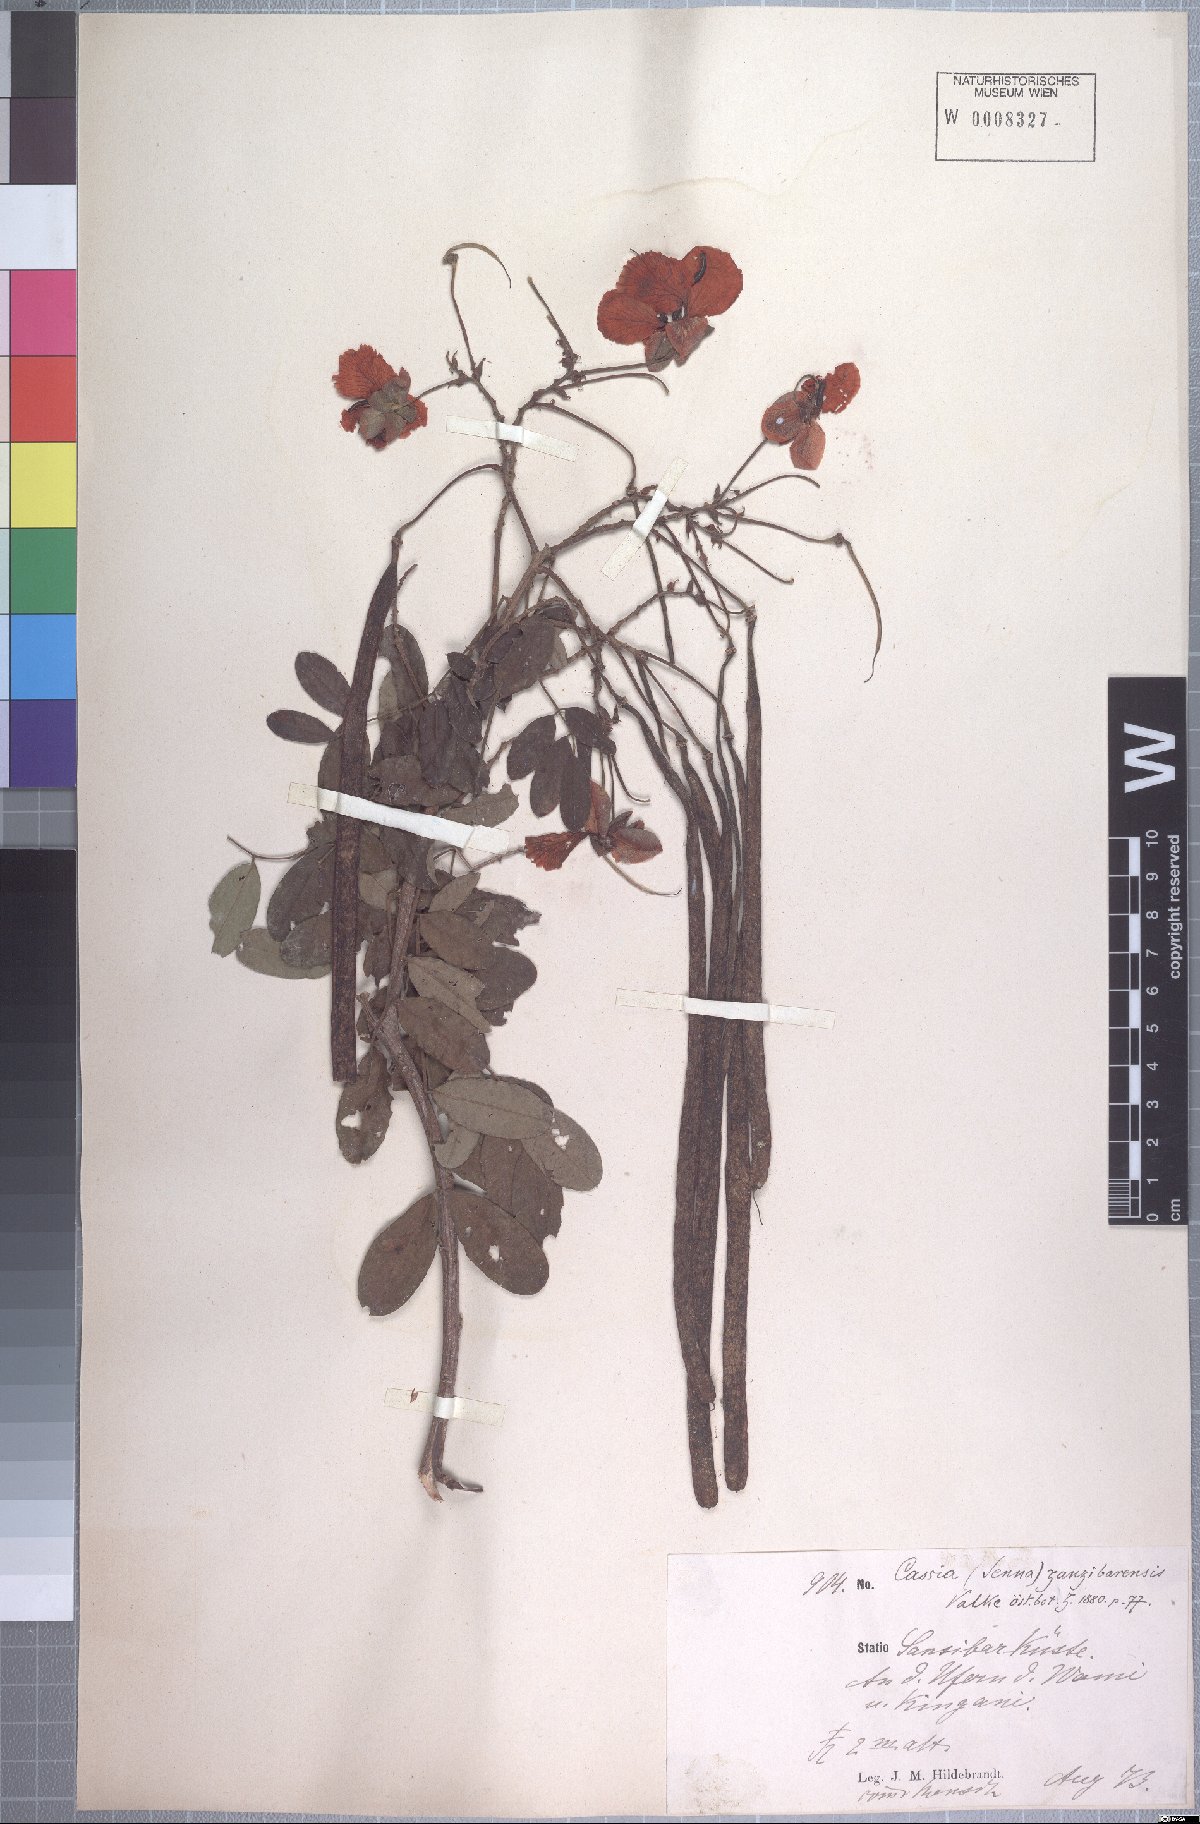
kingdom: Plantae
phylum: Tracheophyta
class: Magnoliopsida
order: Fabales
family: Fabaceae
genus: Senna
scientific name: Senna singueana
